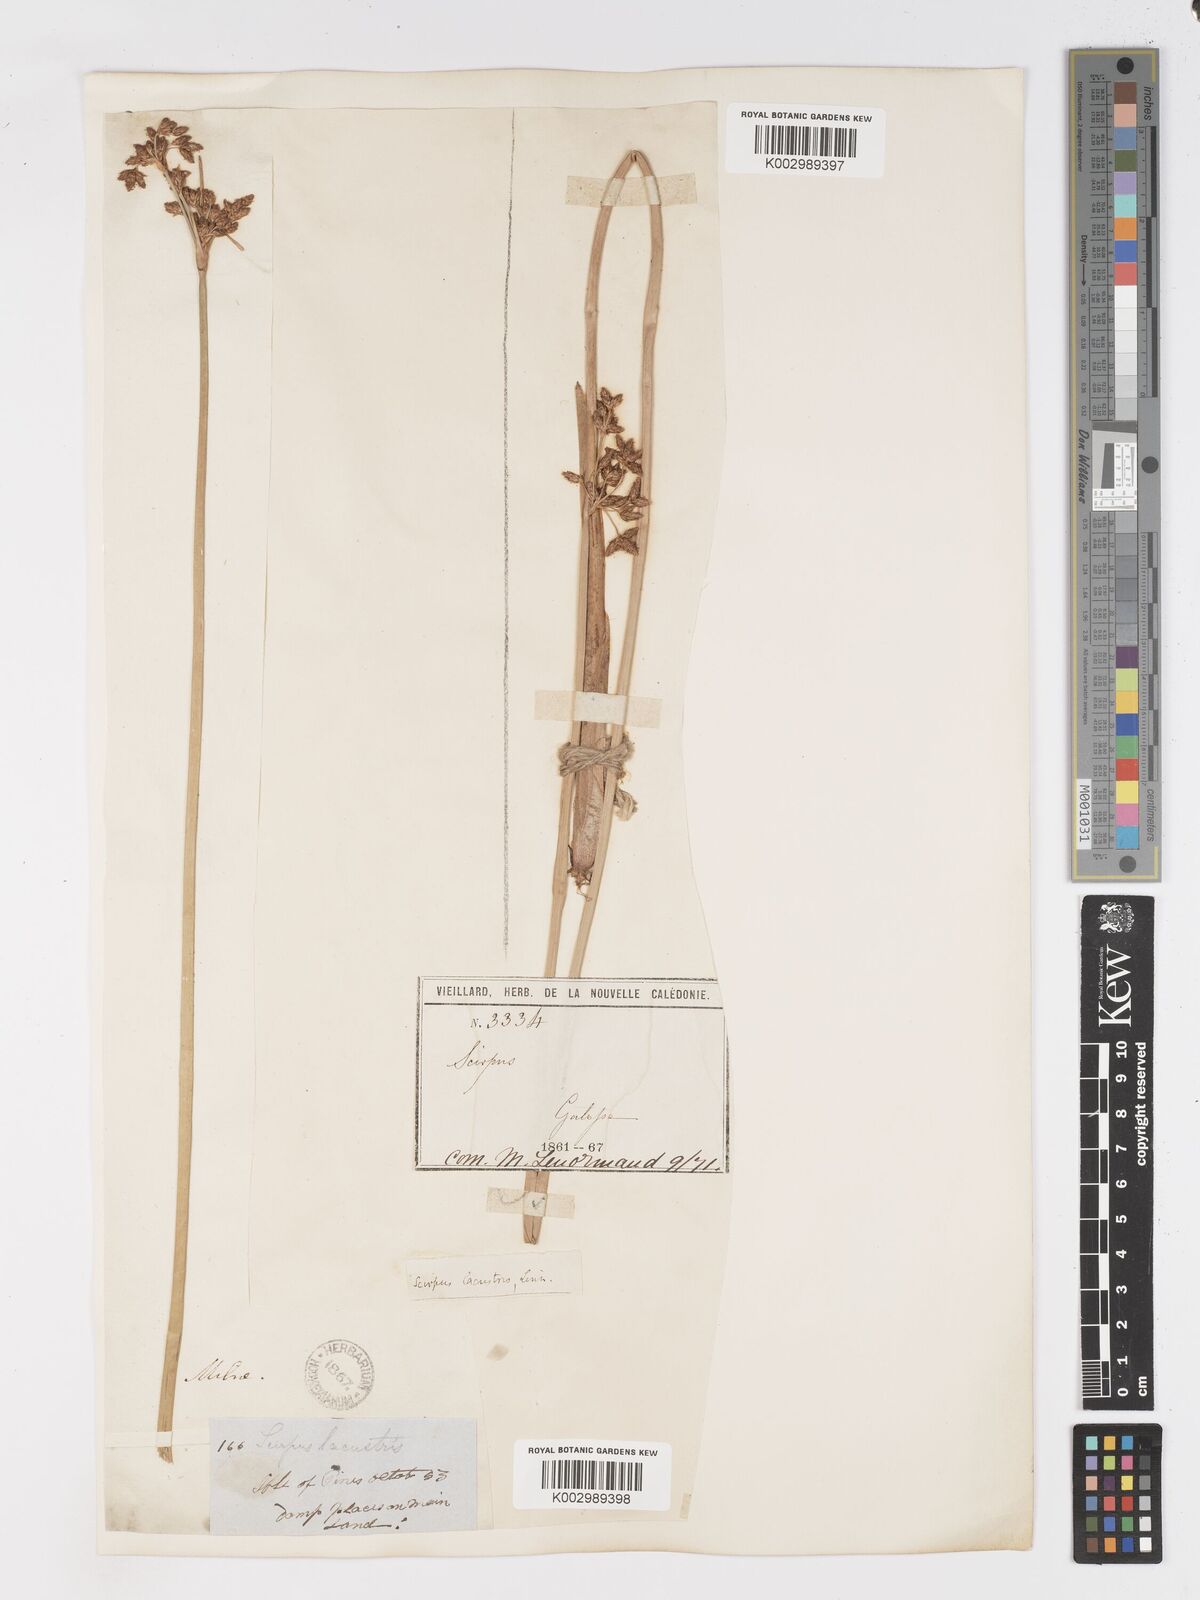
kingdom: Plantae
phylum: Tracheophyta
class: Liliopsida
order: Poales
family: Cyperaceae
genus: Schoenoplectus
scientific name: Schoenoplectus californicus
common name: California bulrush
